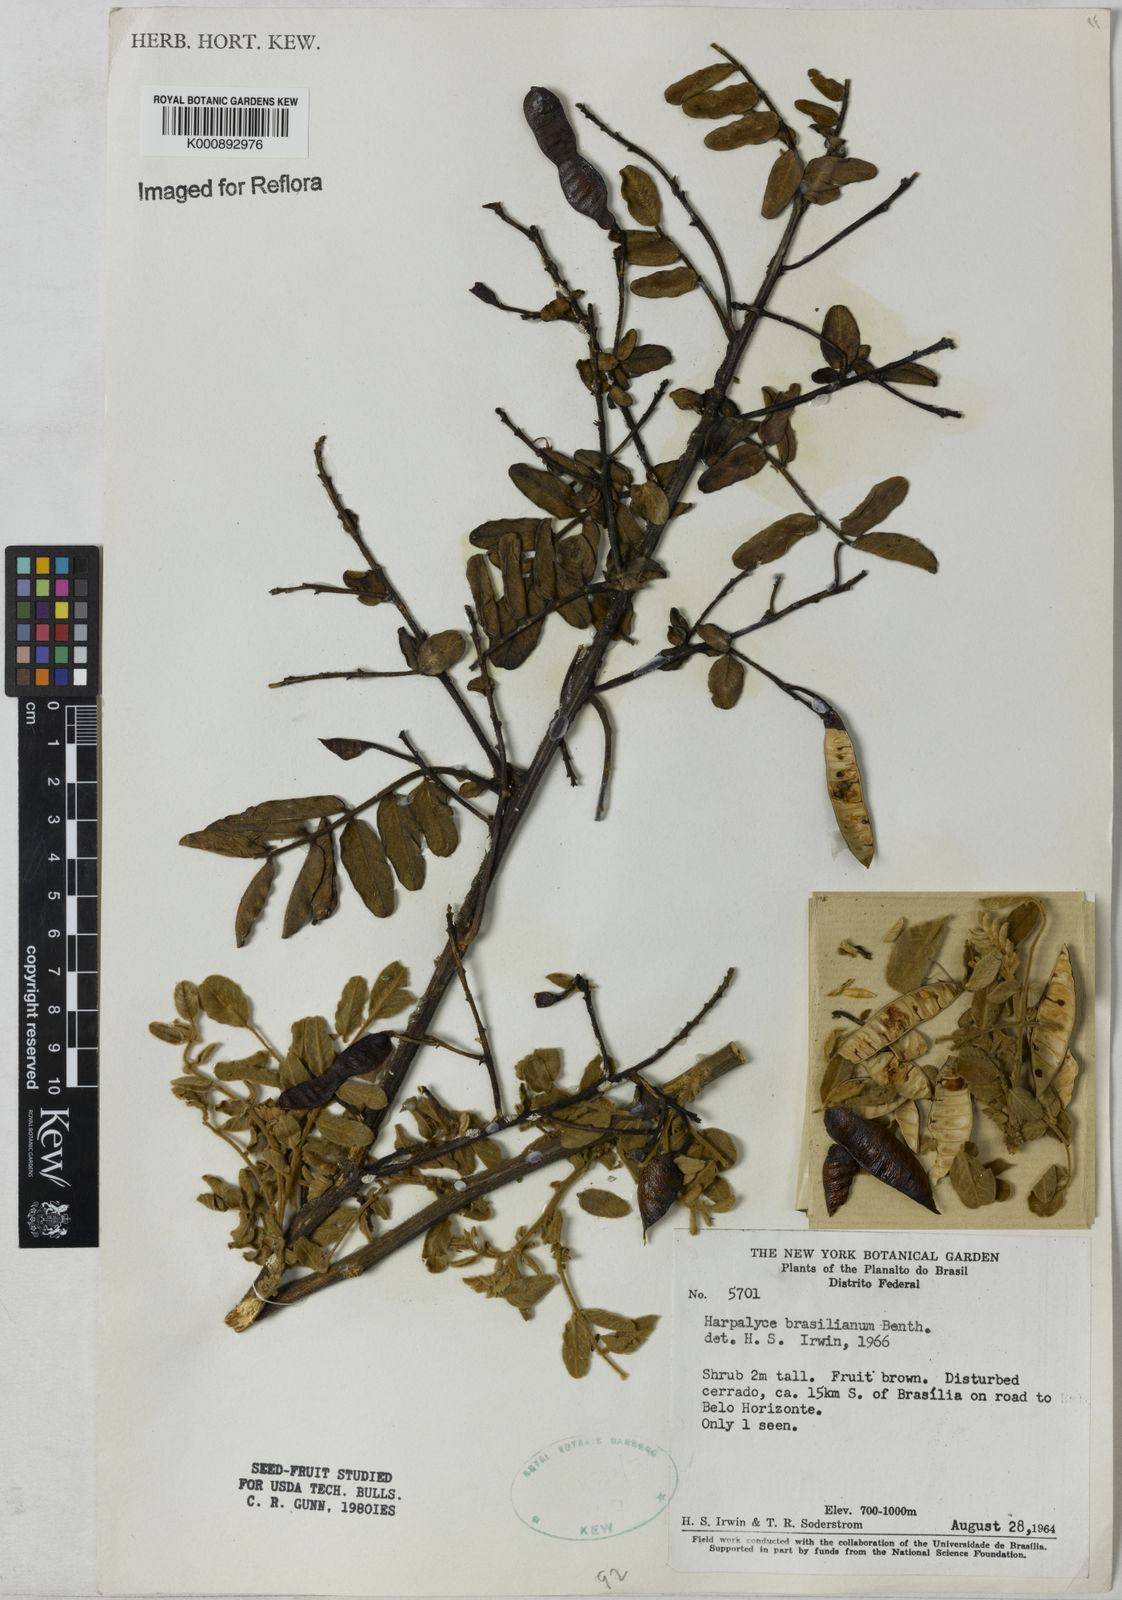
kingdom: Plantae
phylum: Tracheophyta
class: Magnoliopsida
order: Fabales
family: Fabaceae
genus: Harpalyce
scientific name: Harpalyce brasiliana
